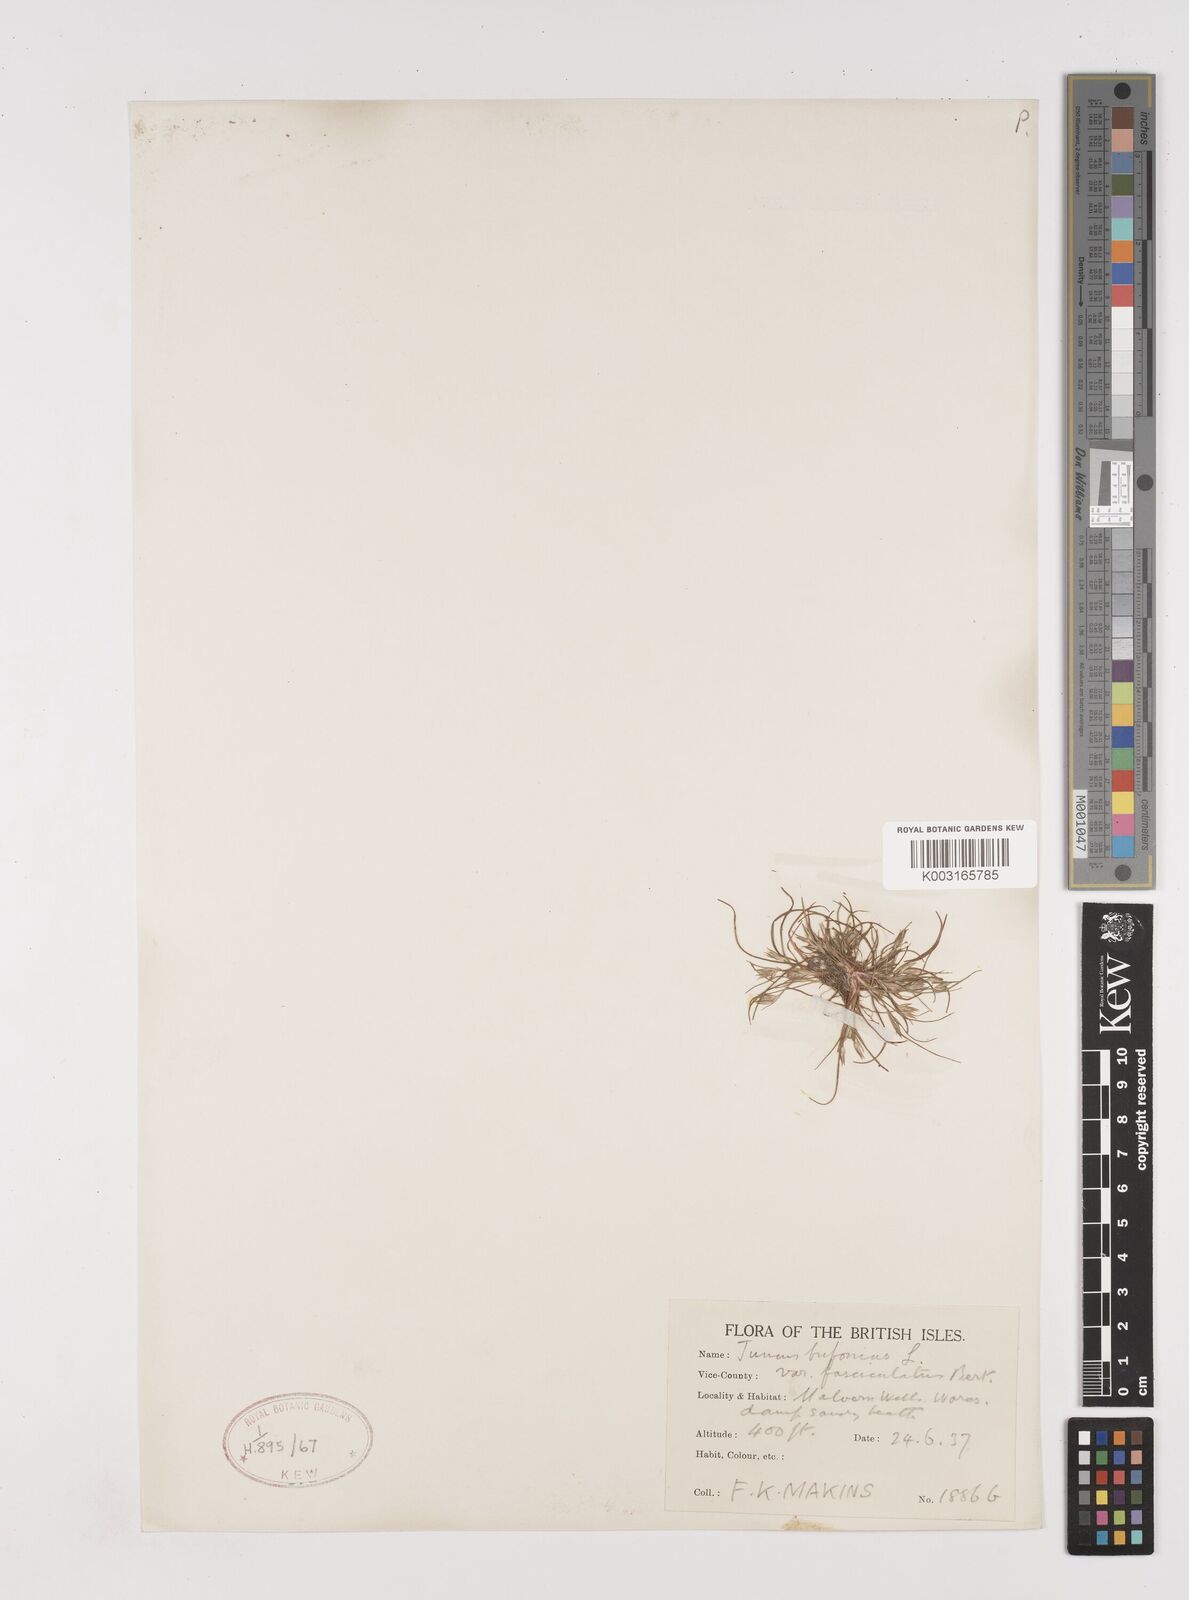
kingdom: Plantae
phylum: Tracheophyta
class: Liliopsida
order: Poales
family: Juncaceae
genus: Juncus
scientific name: Juncus bufonius
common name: Toad rush
